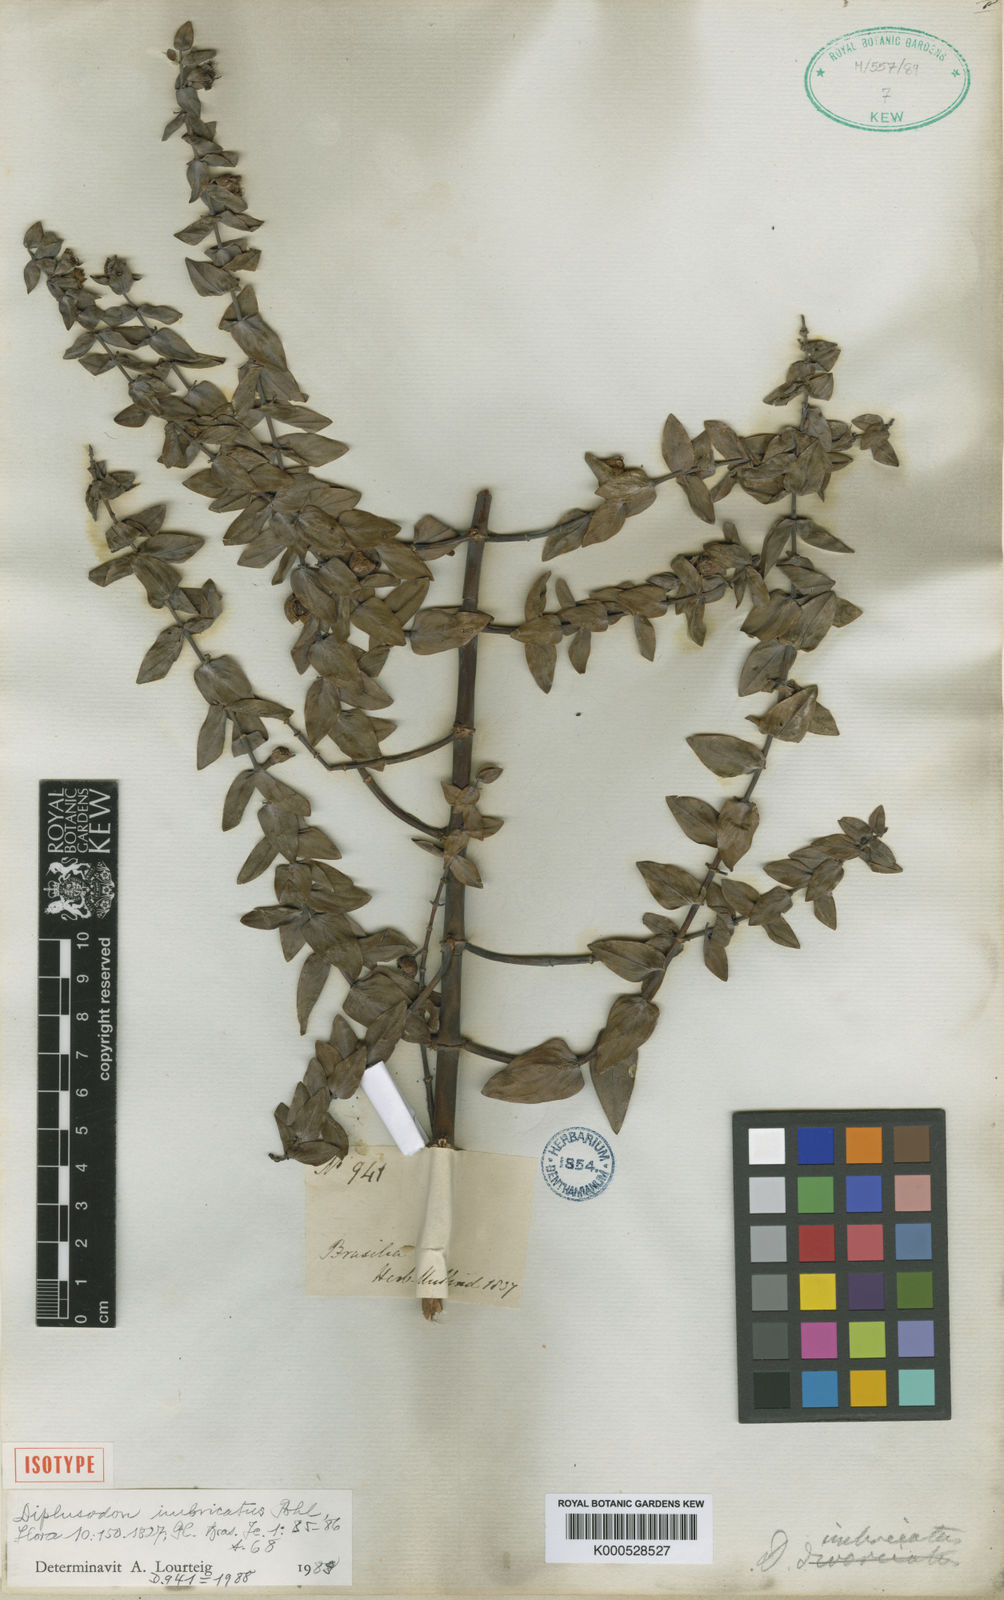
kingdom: Plantae
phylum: Tracheophyta
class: Magnoliopsida
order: Myrtales
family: Lythraceae
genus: Diplusodon
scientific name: Diplusodon imbricatus
